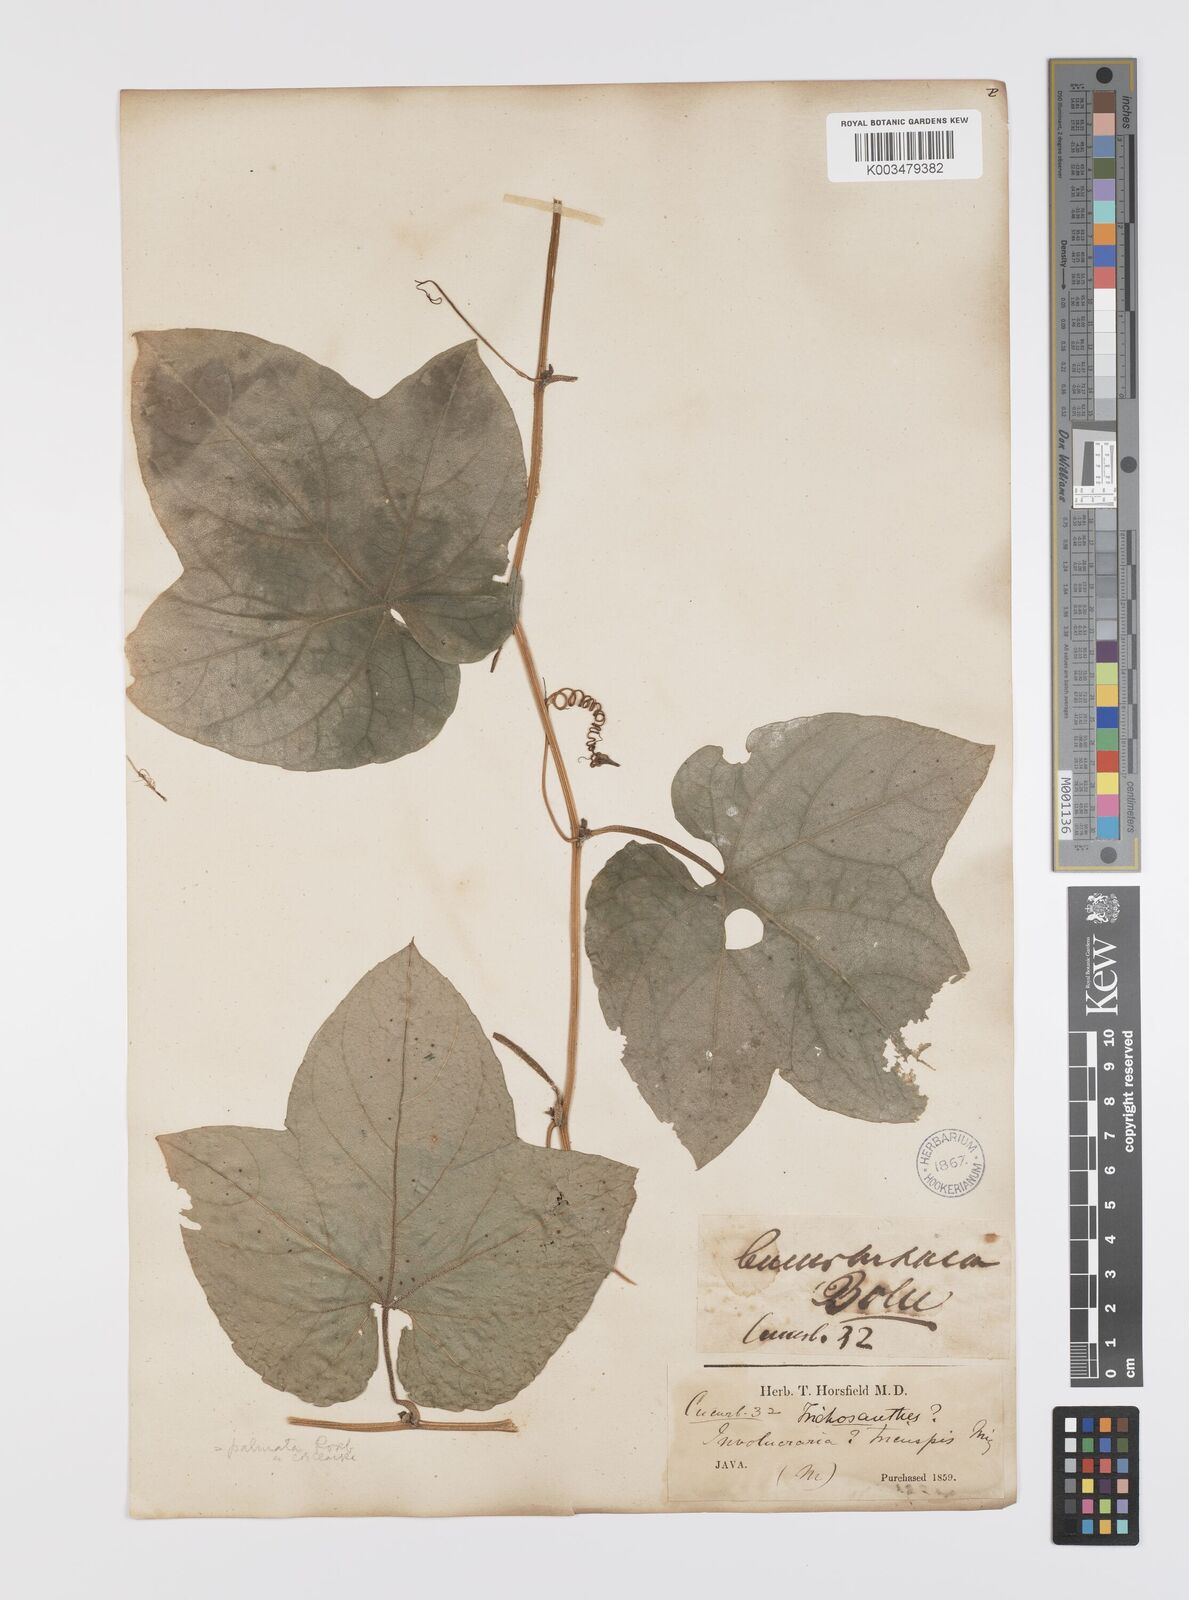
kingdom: Plantae
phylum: Tracheophyta
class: Magnoliopsida
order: Cucurbitales
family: Cucurbitaceae
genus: Trichosanthes
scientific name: Trichosanthes tricuspidata
